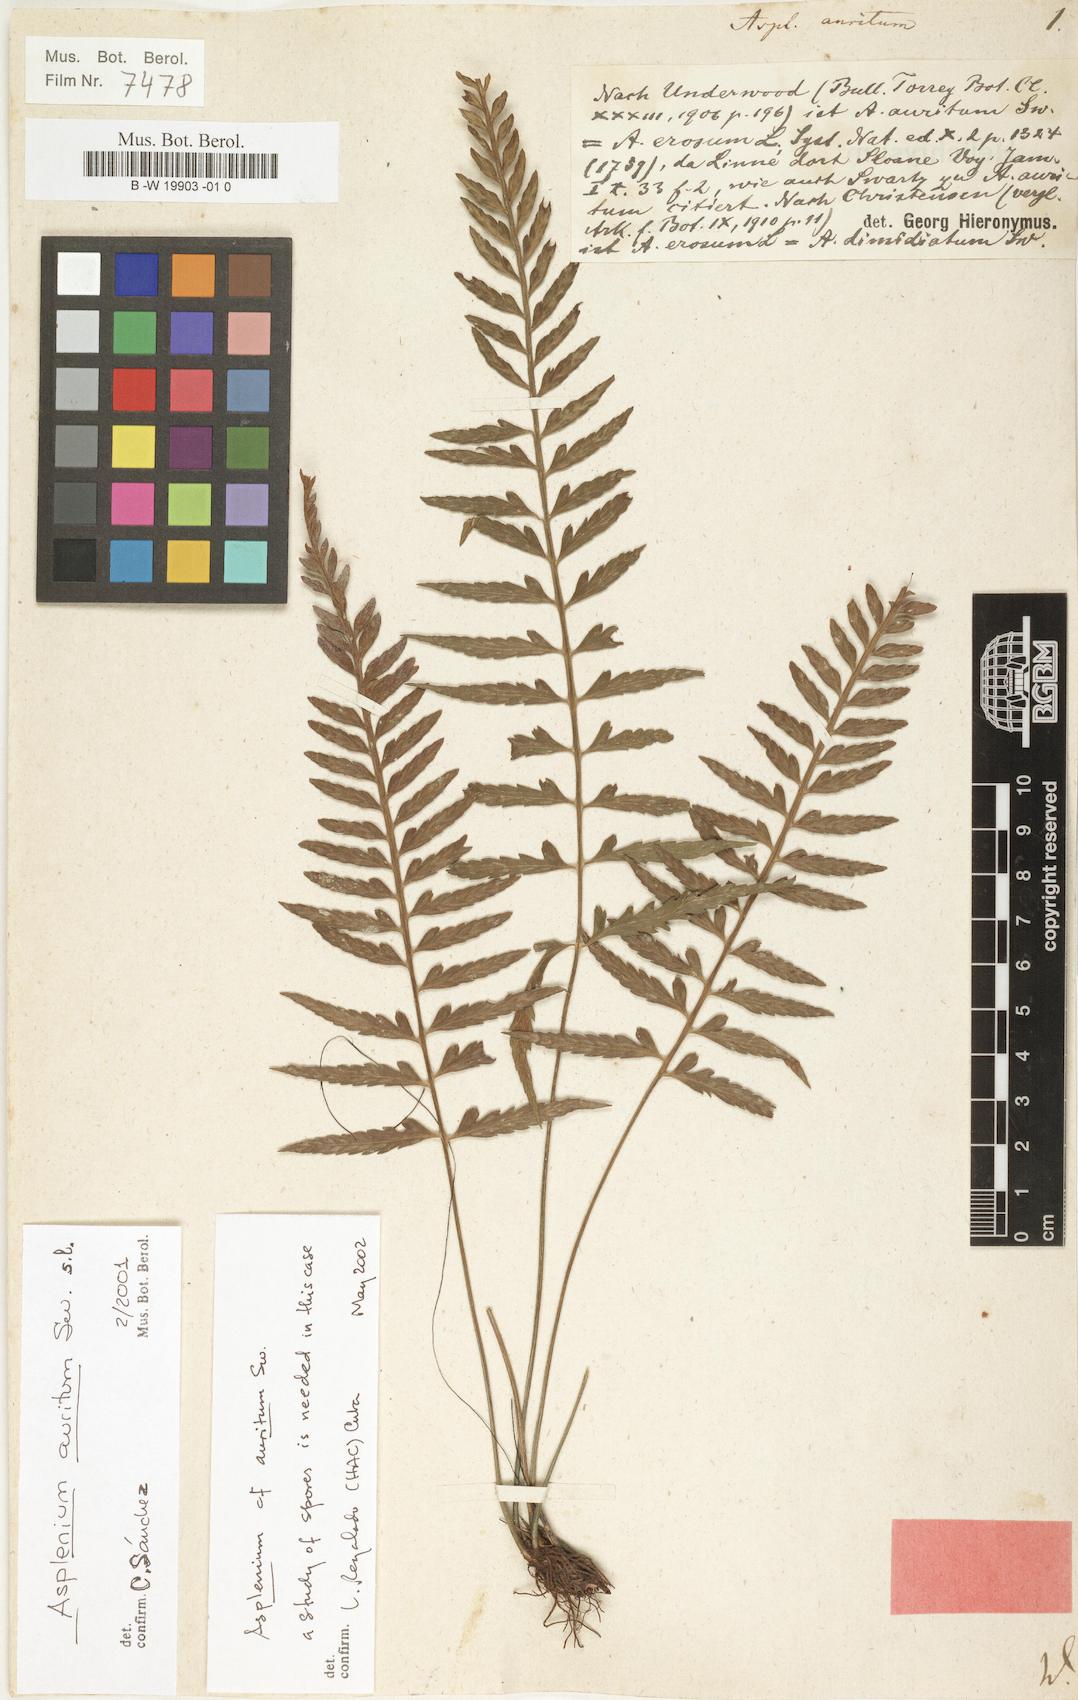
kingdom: Plantae
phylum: Tracheophyta
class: Polypodiopsida
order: Polypodiales
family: Aspleniaceae
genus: Asplenium
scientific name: Asplenium auritum
